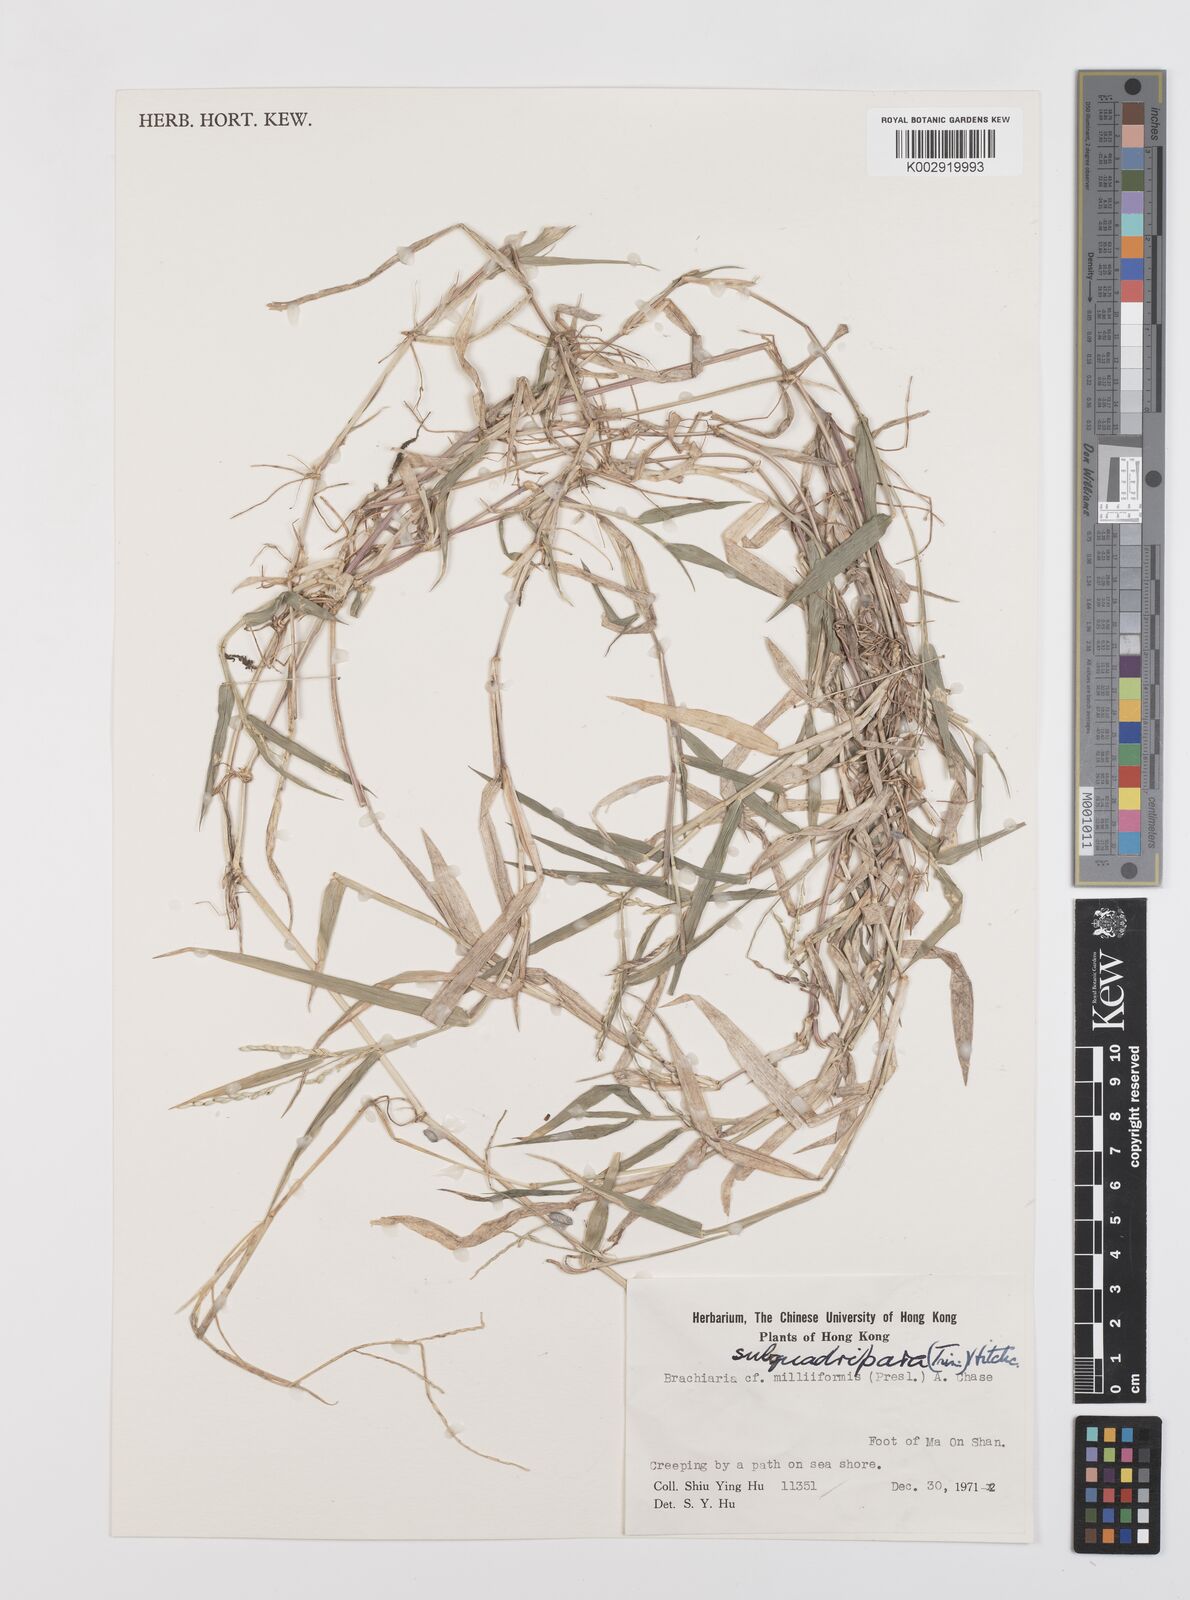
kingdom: Plantae
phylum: Tracheophyta
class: Liliopsida
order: Poales
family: Poaceae
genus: Urochloa
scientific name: Urochloa subquadripara
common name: Armgrass millet
